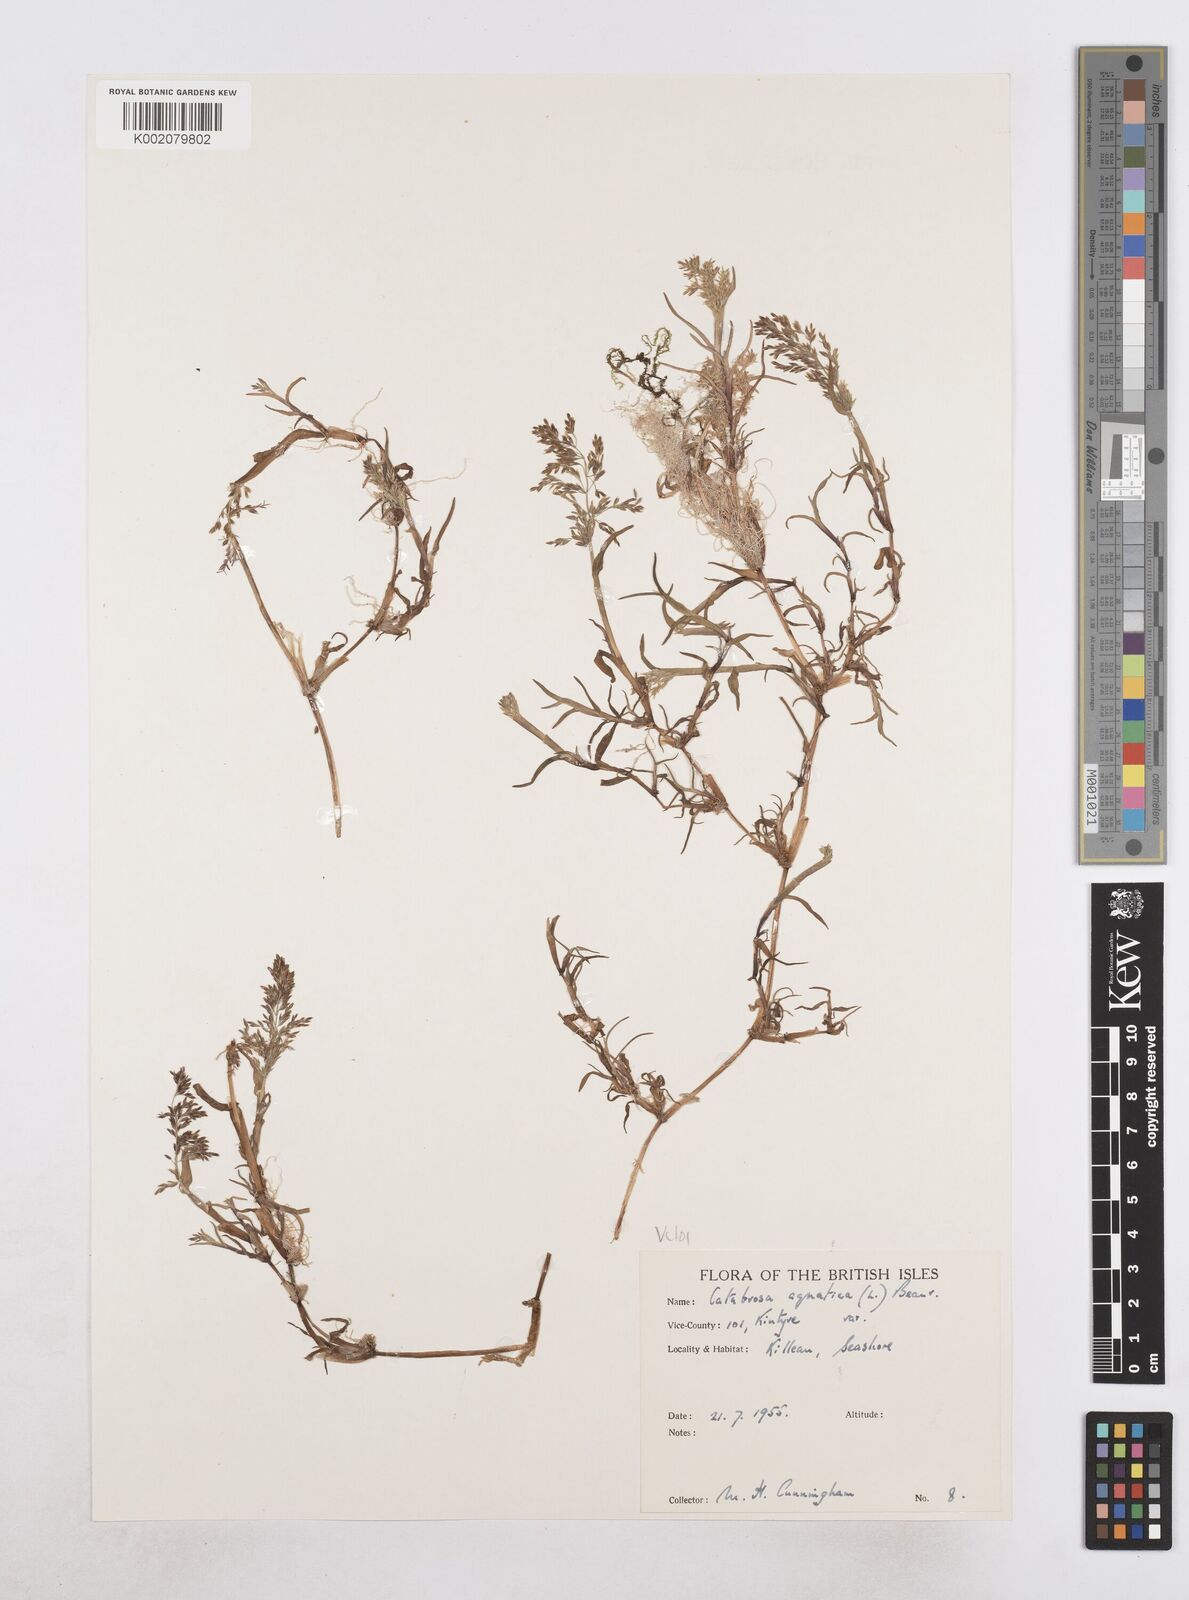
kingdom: Plantae
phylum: Tracheophyta
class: Liliopsida
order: Poales
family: Poaceae
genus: Catabrosa
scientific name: Catabrosa aquatica
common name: Whorl-grass
